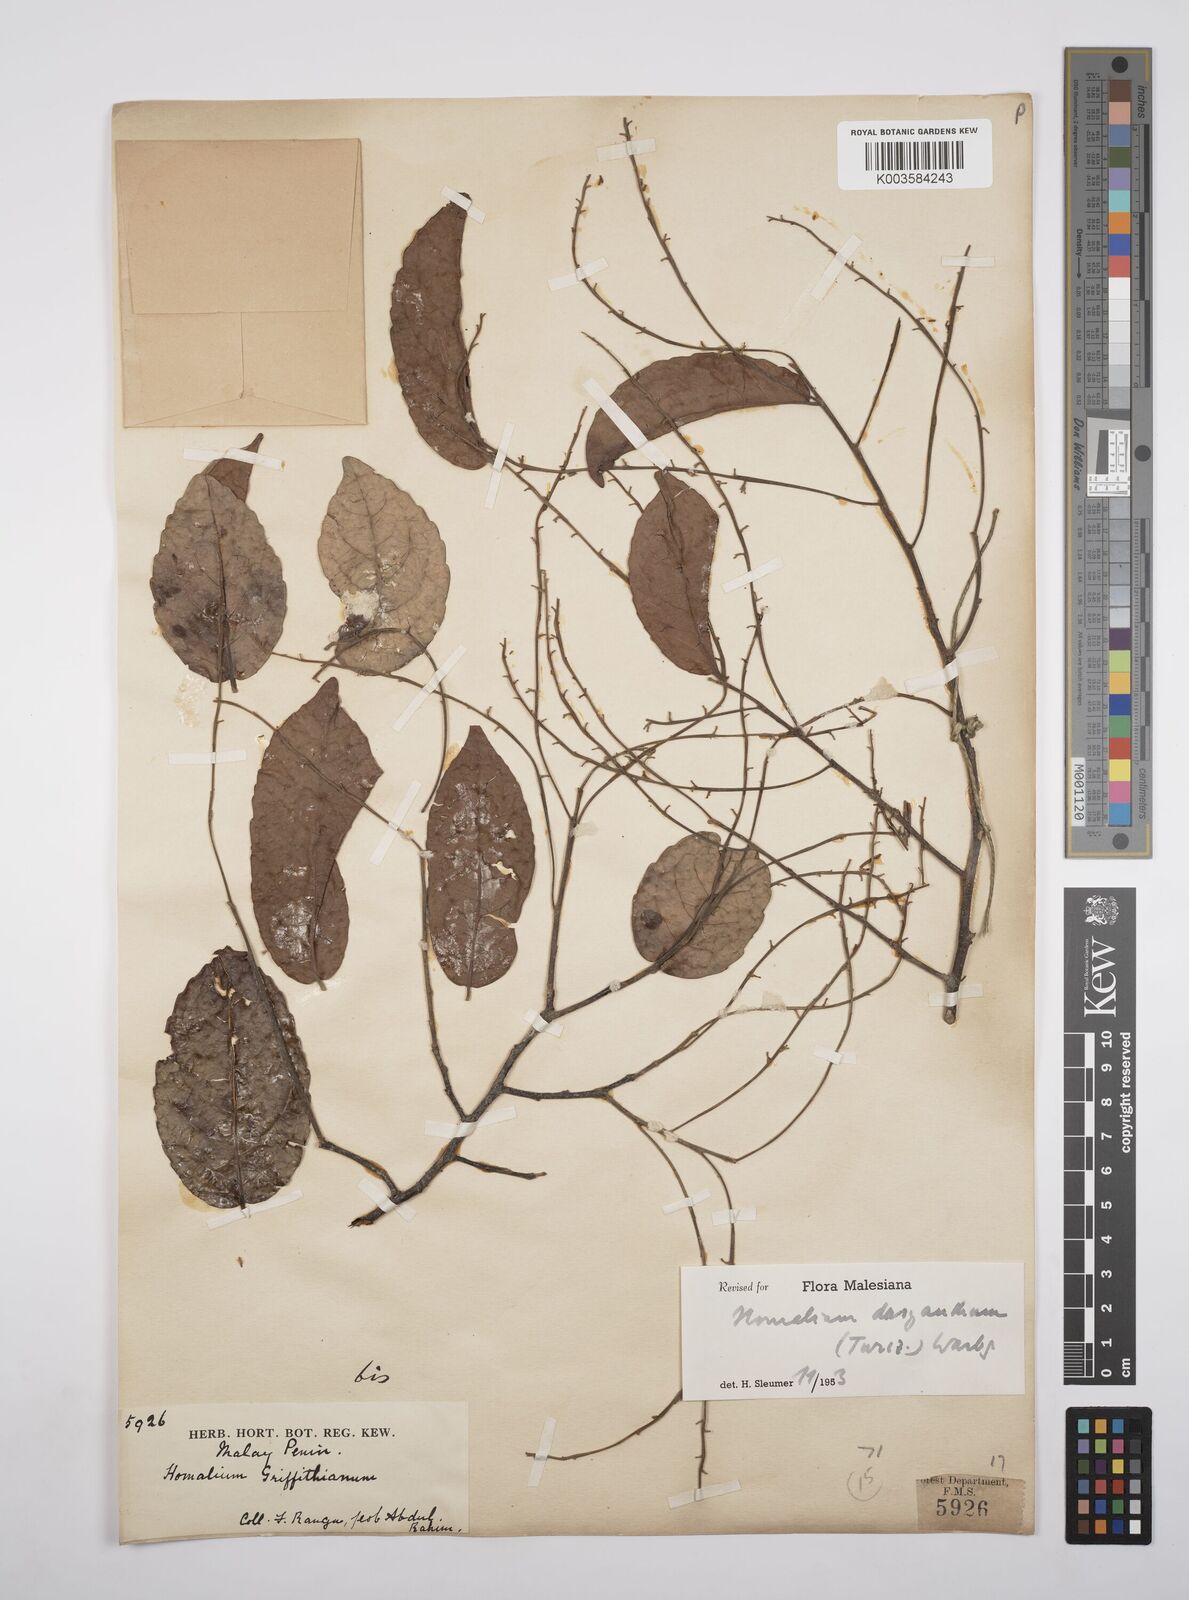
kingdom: Plantae
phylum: Tracheophyta
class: Magnoliopsida
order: Malpighiales
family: Salicaceae
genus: Homalium
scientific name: Homalium dasyanthum
